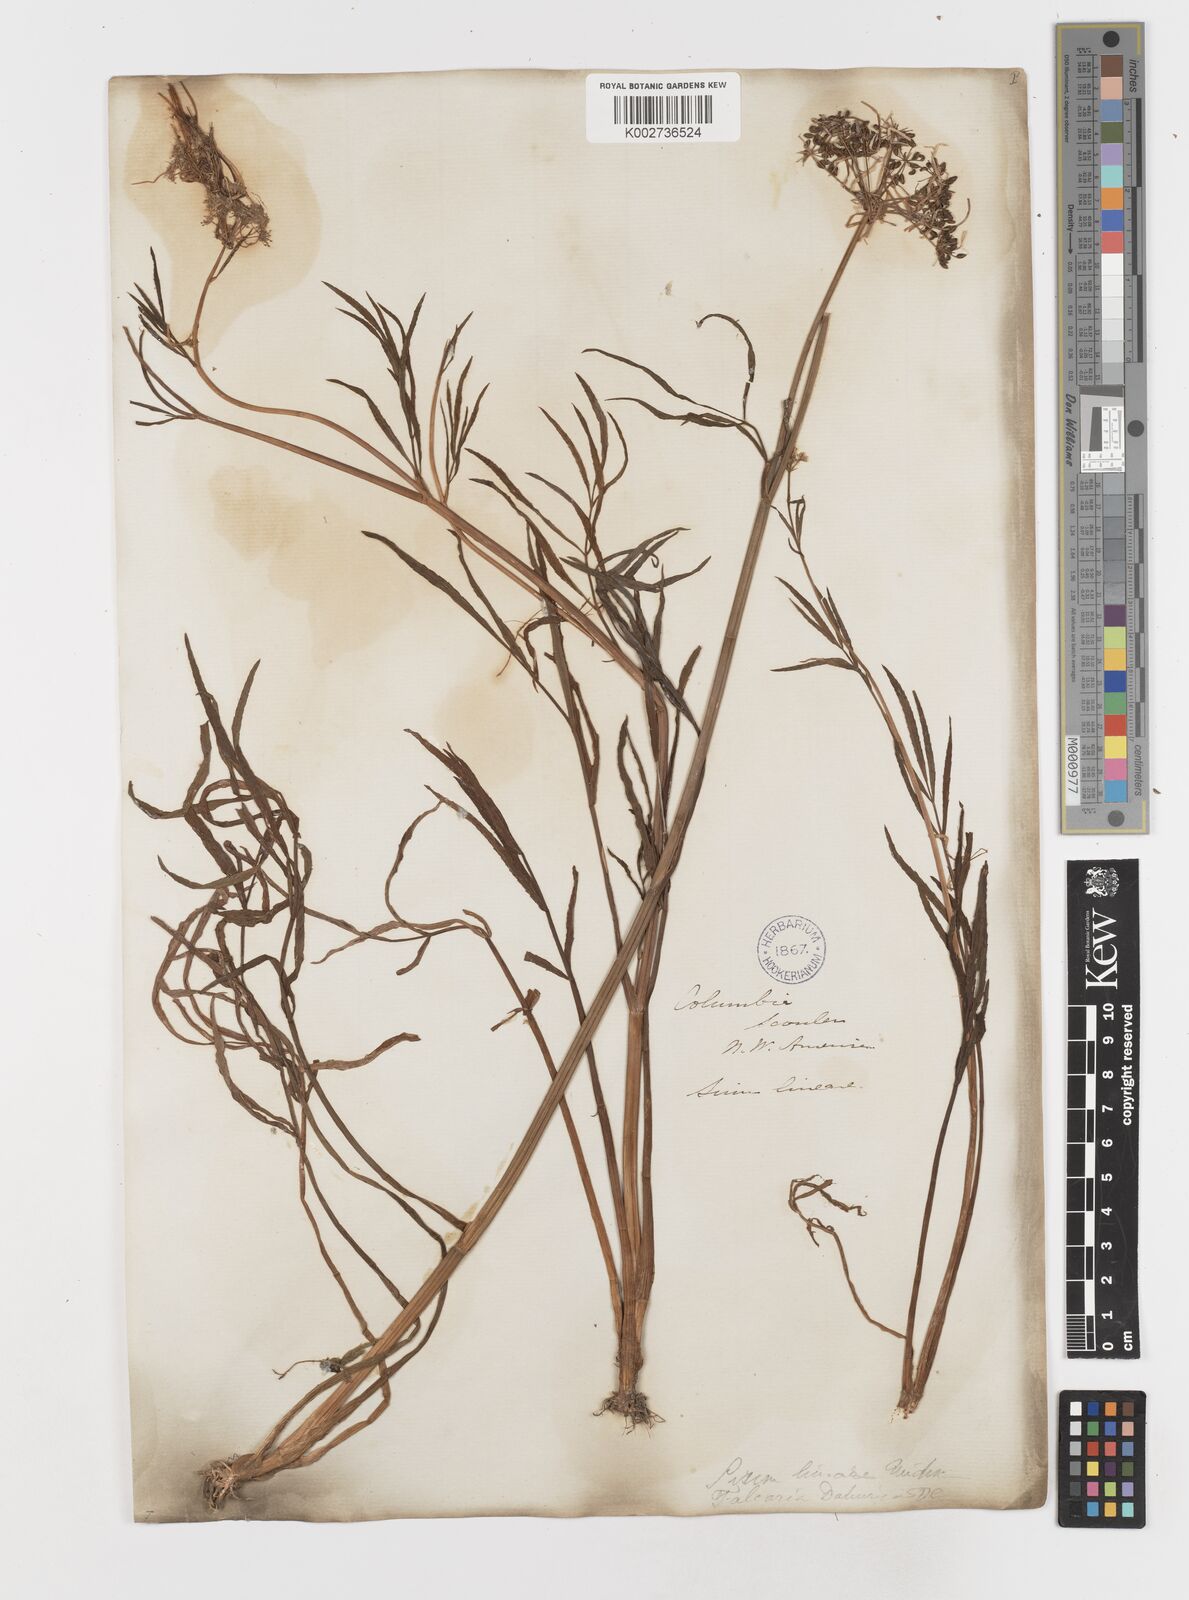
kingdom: Plantae
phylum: Tracheophyta
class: Magnoliopsida
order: Apiales
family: Apiaceae
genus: Sium
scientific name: Sium suave
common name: Hemlock water-parsnip
